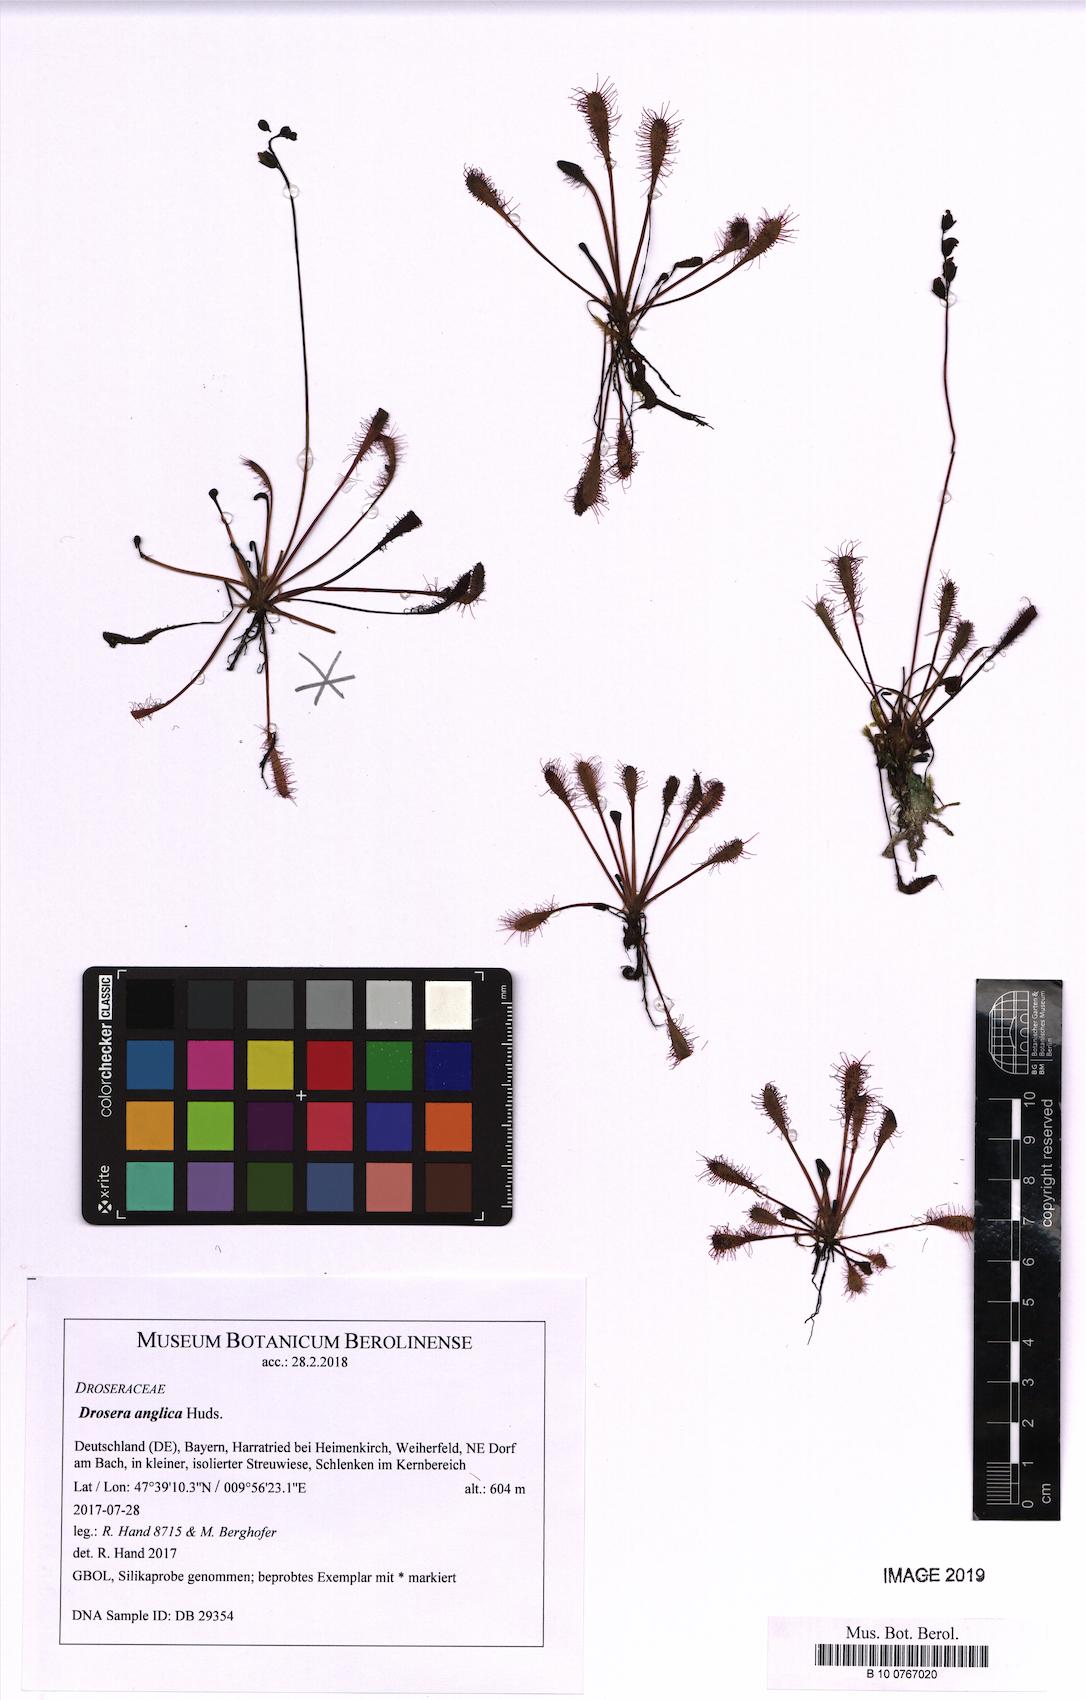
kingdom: Plantae
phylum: Tracheophyta
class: Magnoliopsida
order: Caryophyllales
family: Droseraceae
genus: Drosera
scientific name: Drosera anglica
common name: Great sundew
